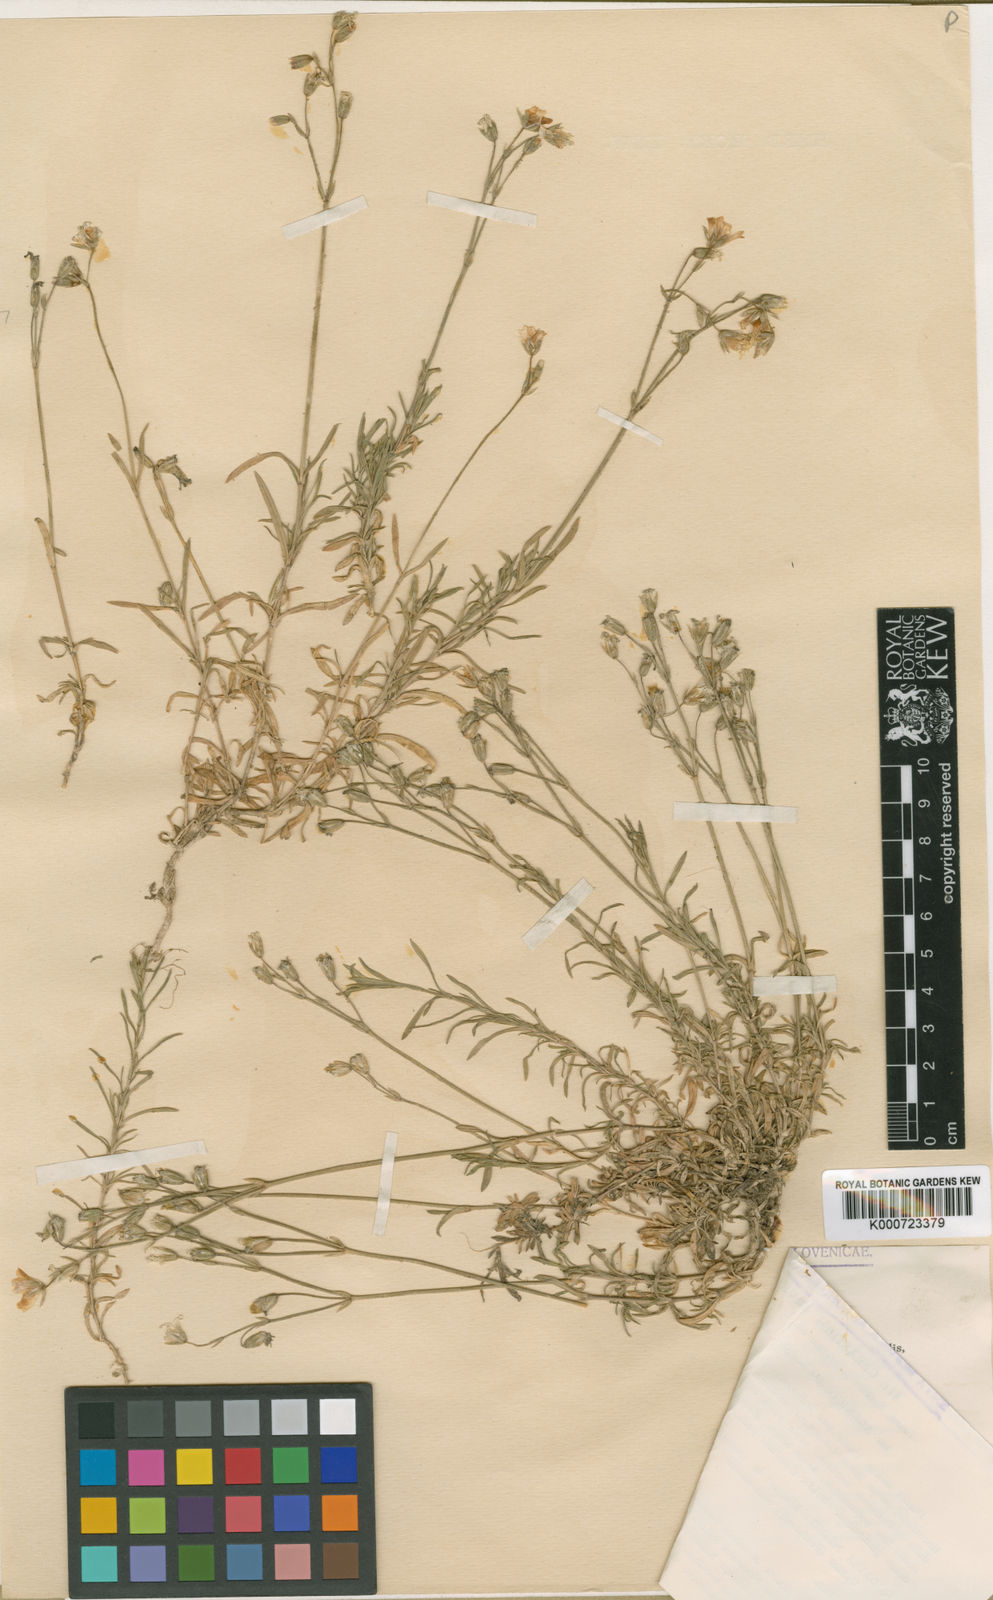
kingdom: Plantae
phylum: Tracheophyta
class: Magnoliopsida
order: Caryophyllales
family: Caryophyllaceae
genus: Cerastium
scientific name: Cerastium arvense
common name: Field mouse-ear
